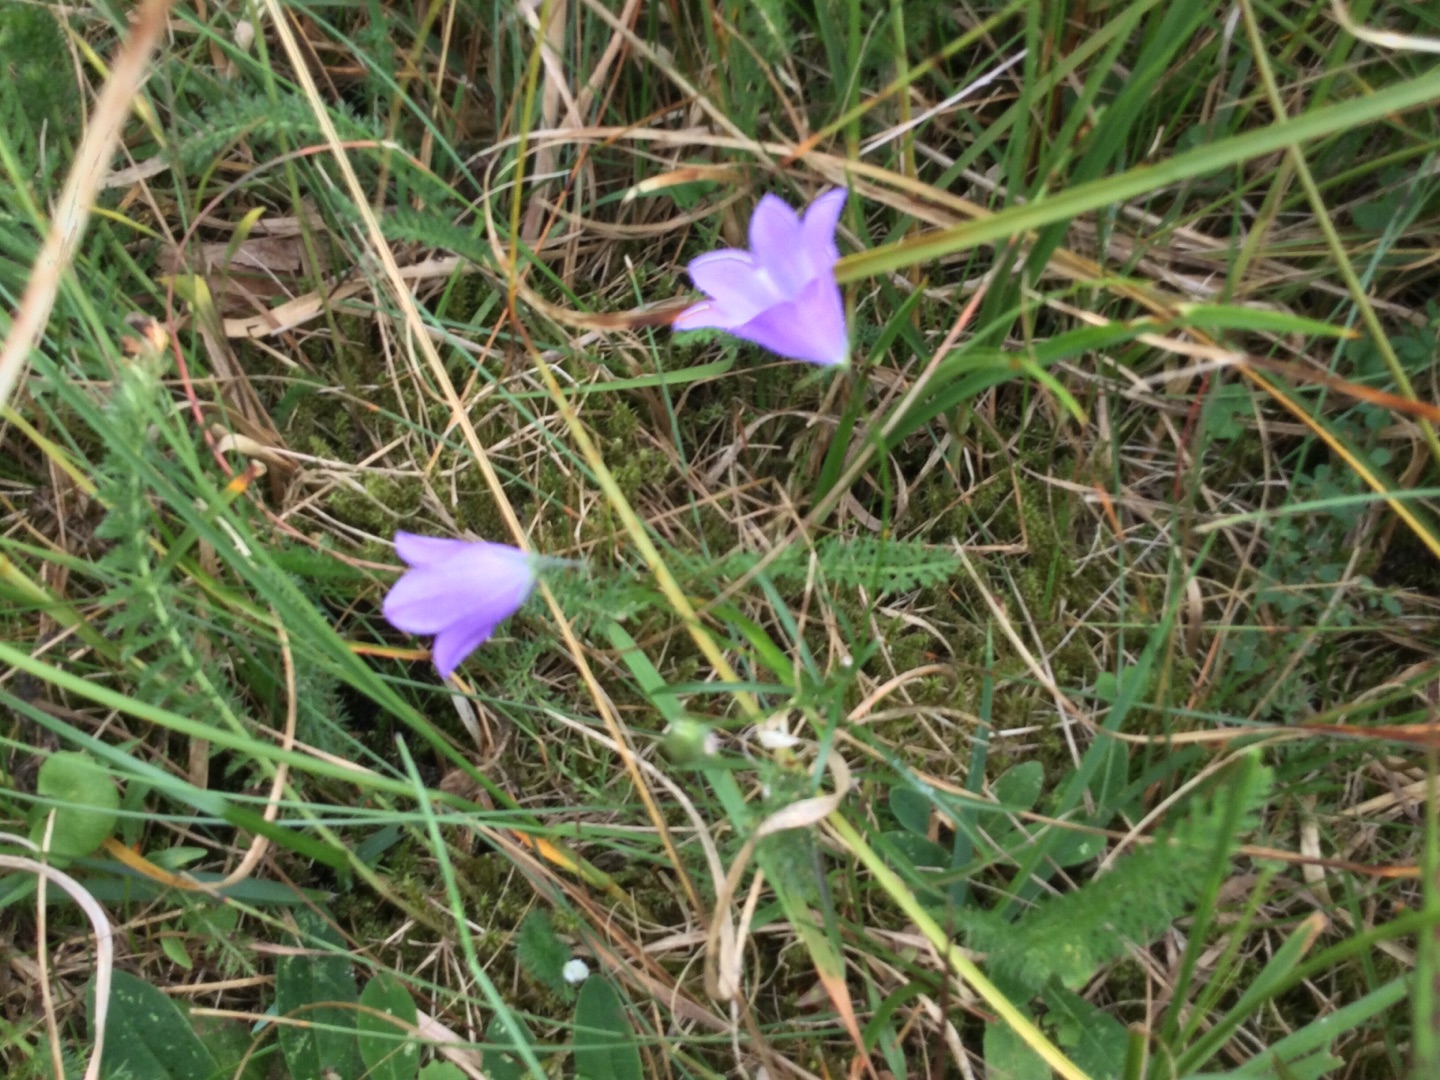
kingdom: Plantae
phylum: Tracheophyta
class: Magnoliopsida
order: Asterales
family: Campanulaceae
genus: Campanula
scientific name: Campanula rotundifolia
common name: Liden klokke
